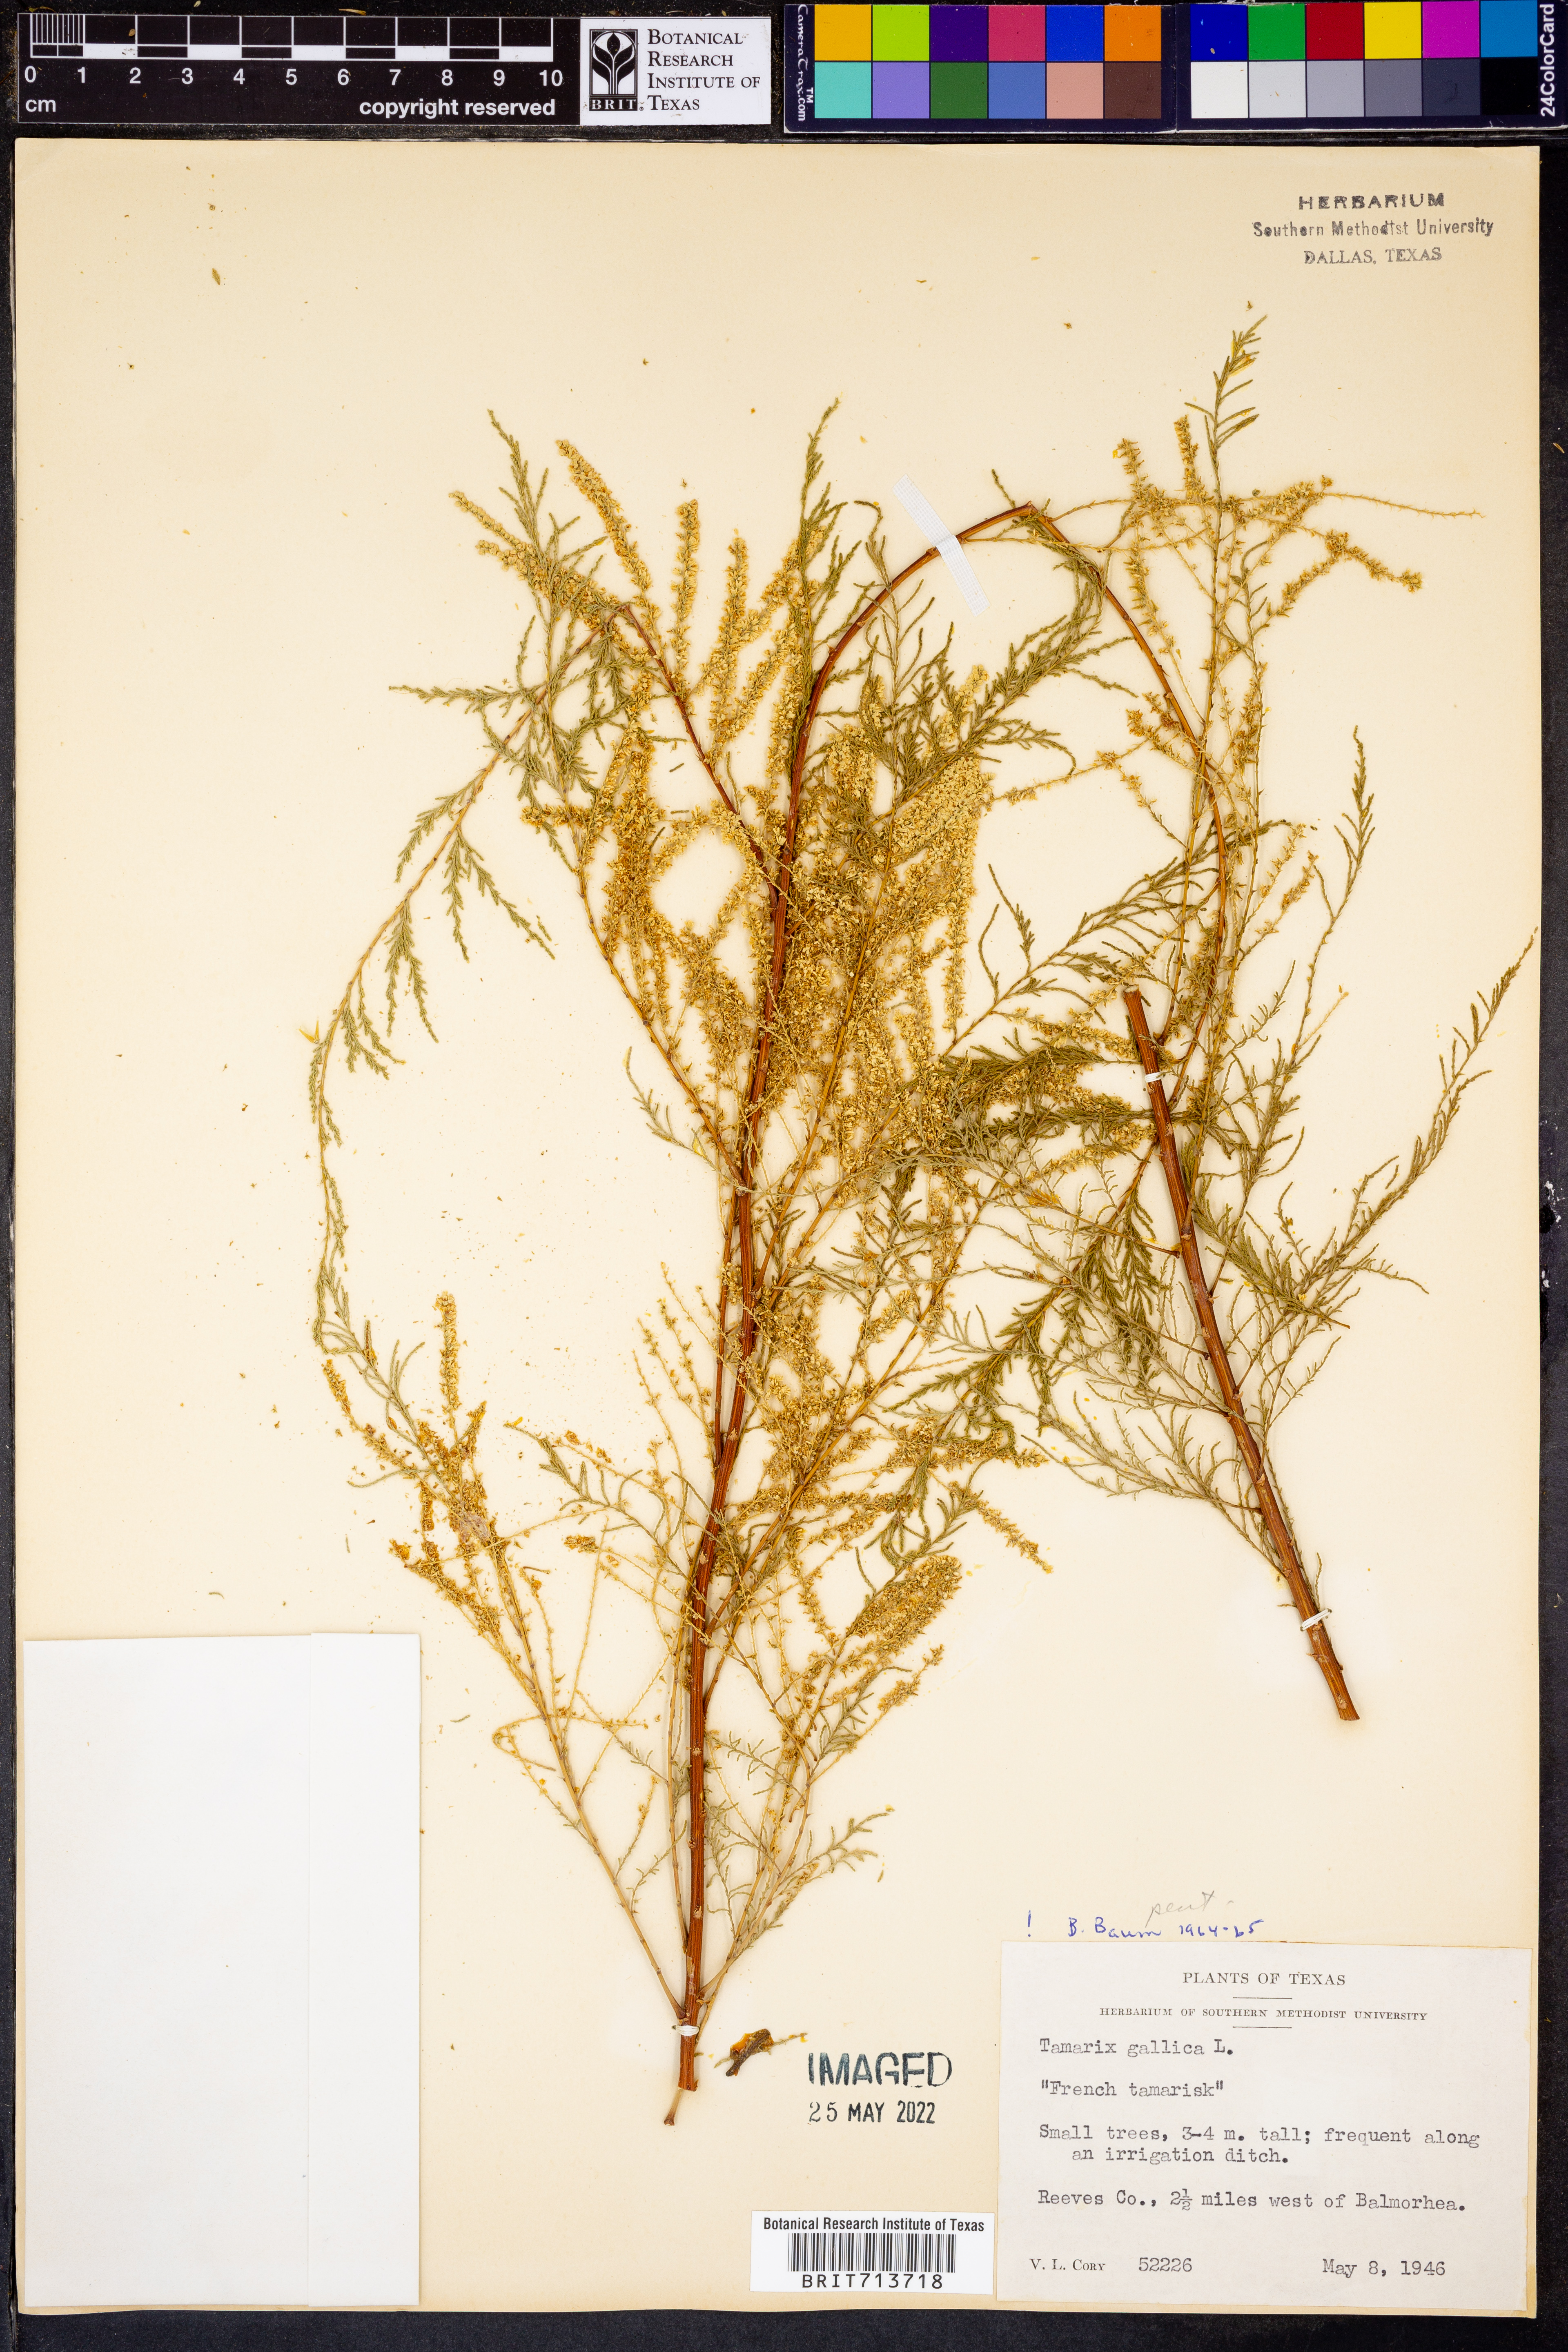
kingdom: Plantae
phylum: Tracheophyta
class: Magnoliopsida
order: Caryophyllales
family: Tamaricaceae
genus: Tamarix
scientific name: Tamarix gallica
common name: Tamarisk
